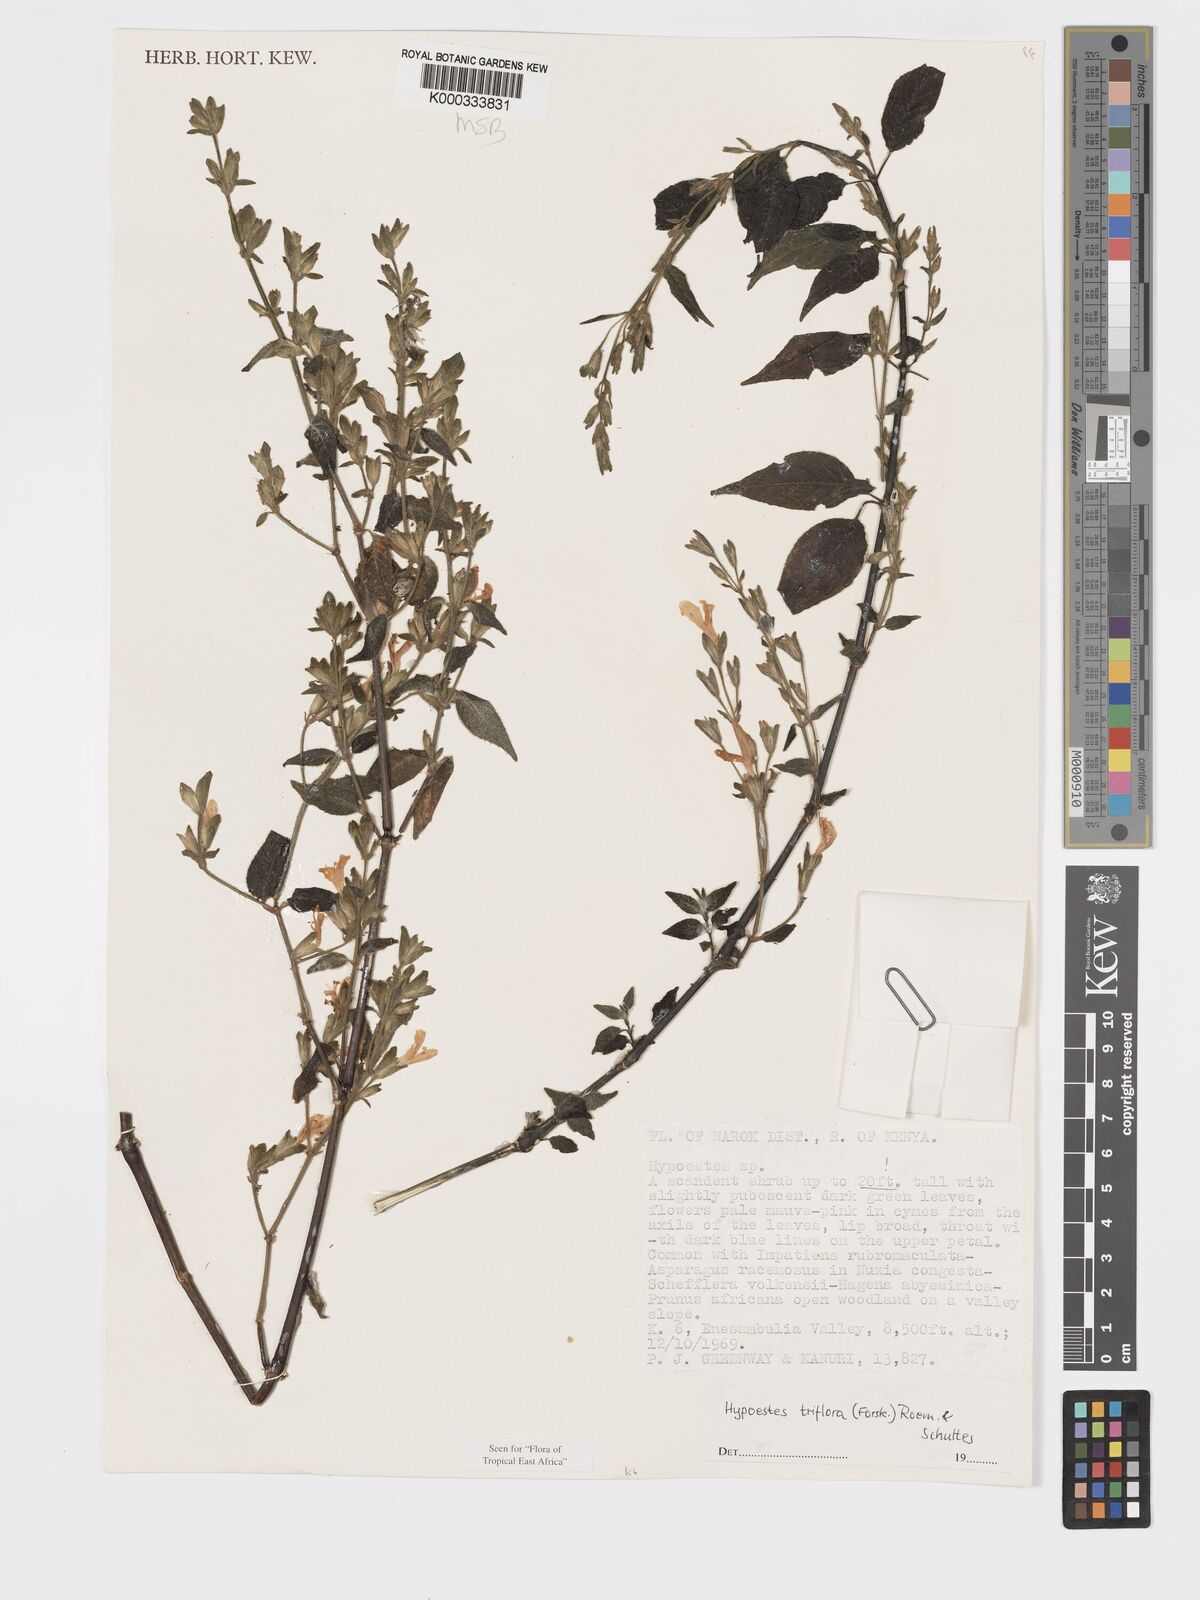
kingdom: Plantae
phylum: Tracheophyta
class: Magnoliopsida
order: Lamiales
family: Acanthaceae
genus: Hypoestes
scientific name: Hypoestes triflora
